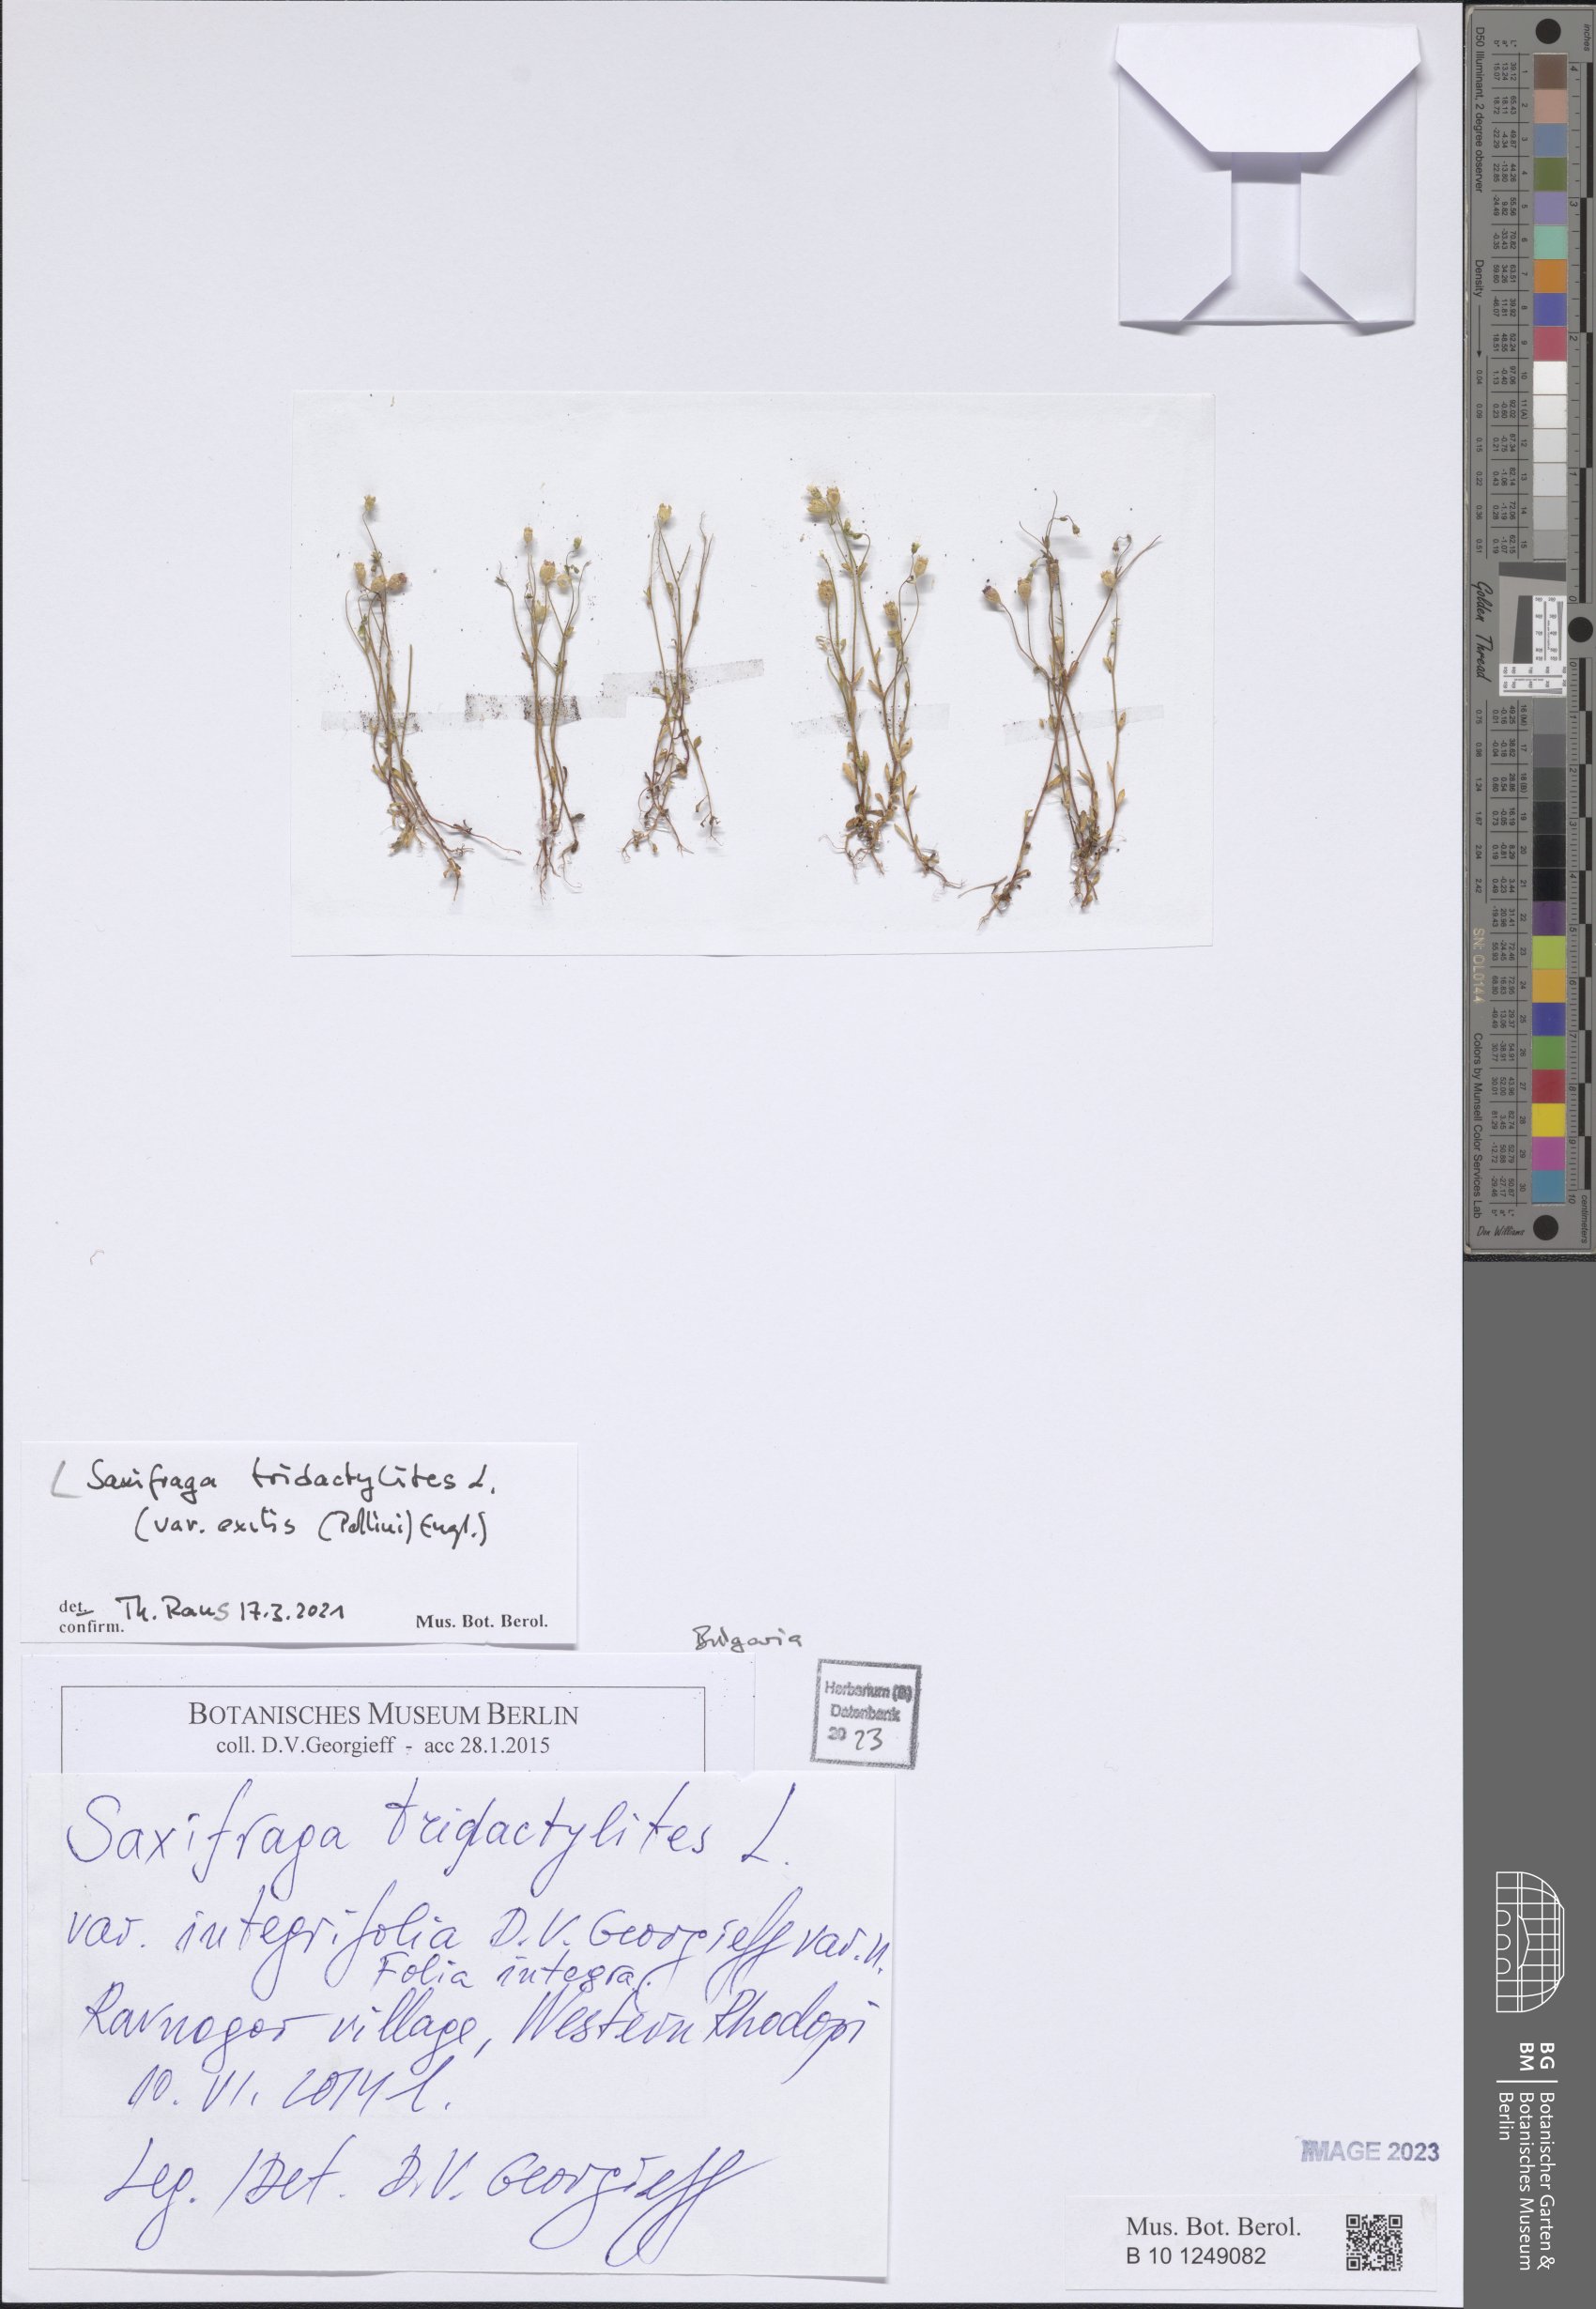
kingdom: Plantae
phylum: Tracheophyta
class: Magnoliopsida
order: Saxifragales
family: Saxifragaceae
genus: Saxifraga
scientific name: Saxifraga tridactylites
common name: Rue-leaved saxifrage
